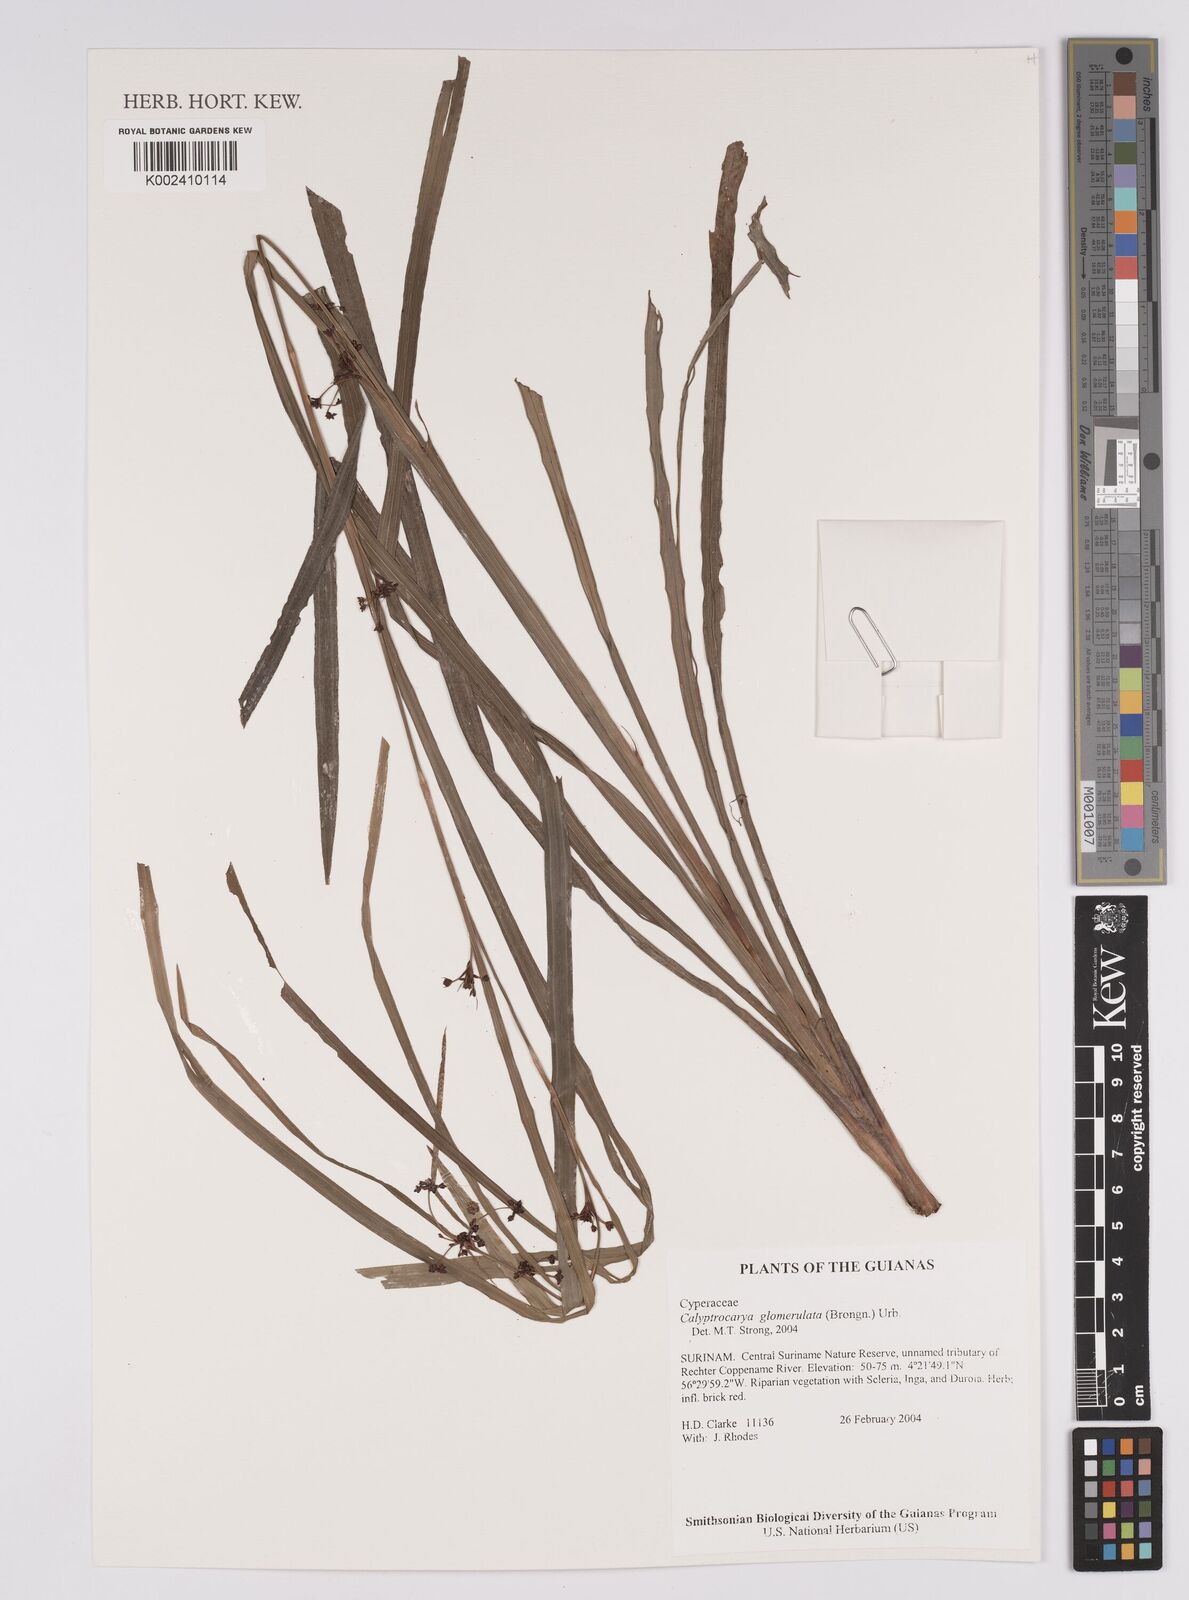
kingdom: Plantae
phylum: Tracheophyta
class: Liliopsida
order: Poales
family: Cyperaceae
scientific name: Cyperaceae
